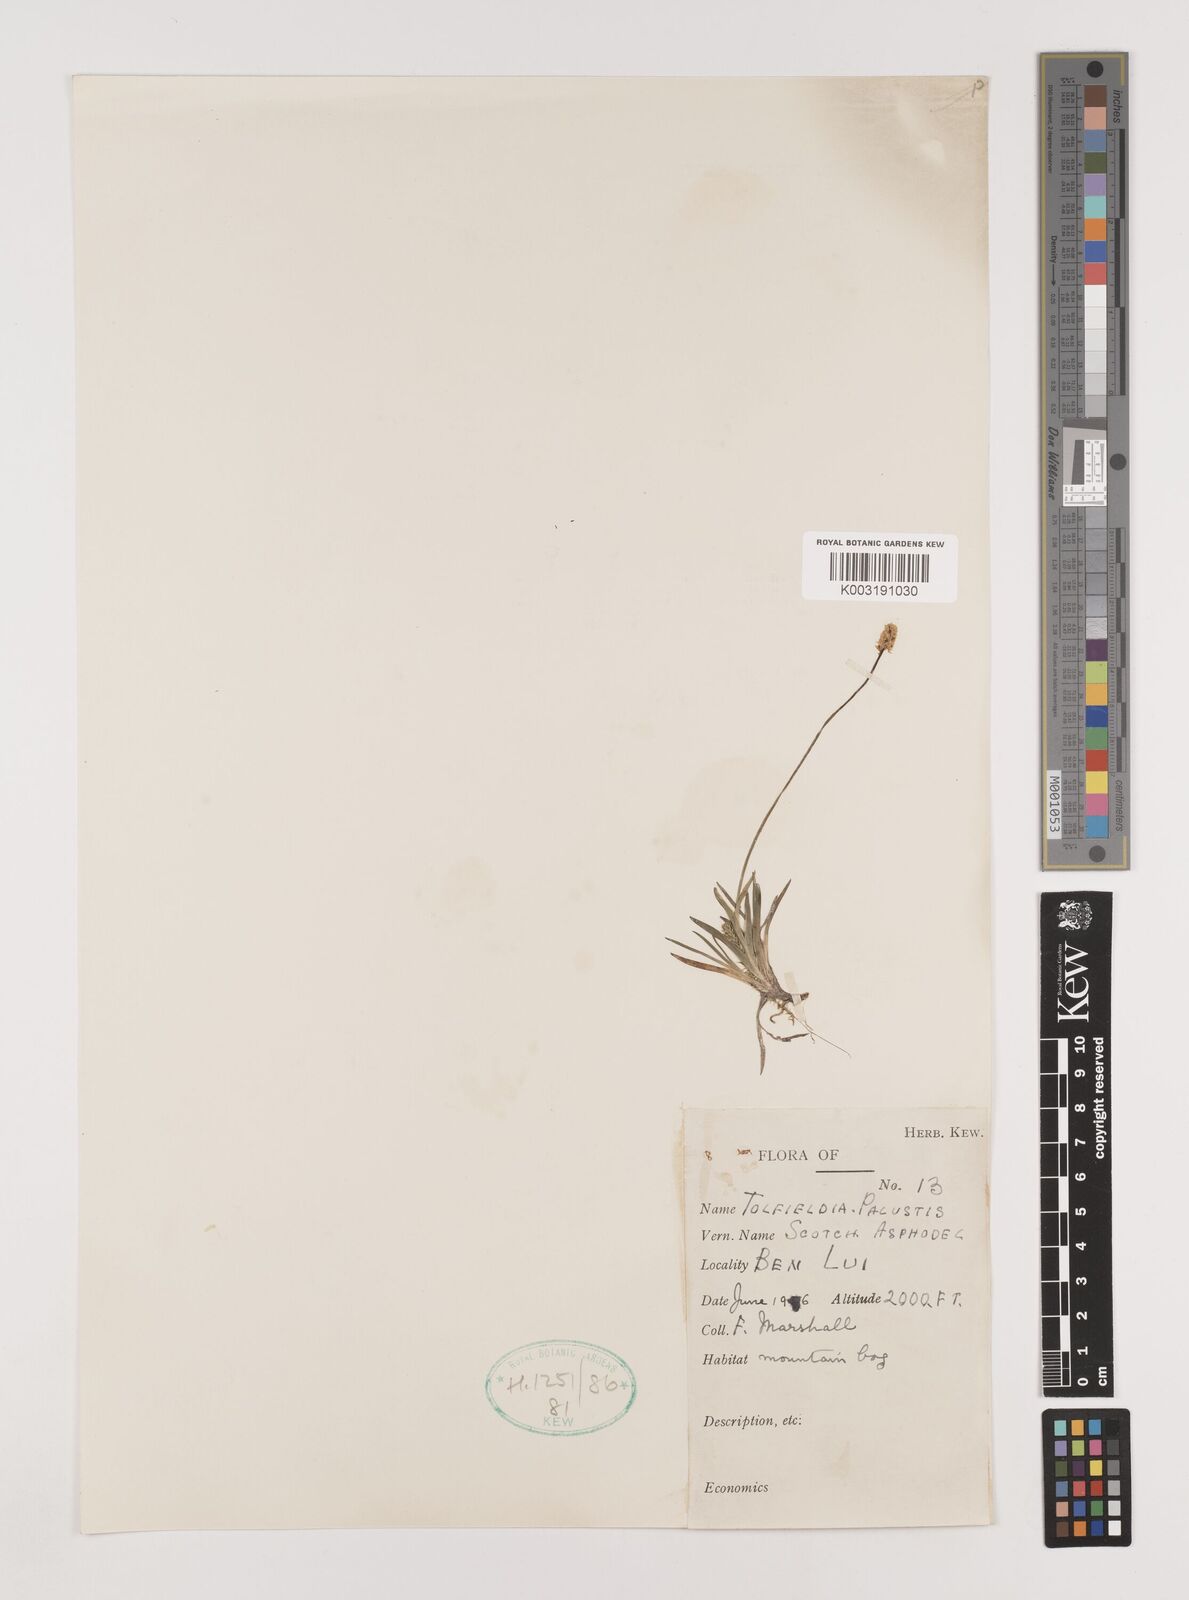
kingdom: Plantae
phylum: Tracheophyta
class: Liliopsida
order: Alismatales
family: Tofieldiaceae
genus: Tofieldia
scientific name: Tofieldia pusilla
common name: Scottish false asphodel
